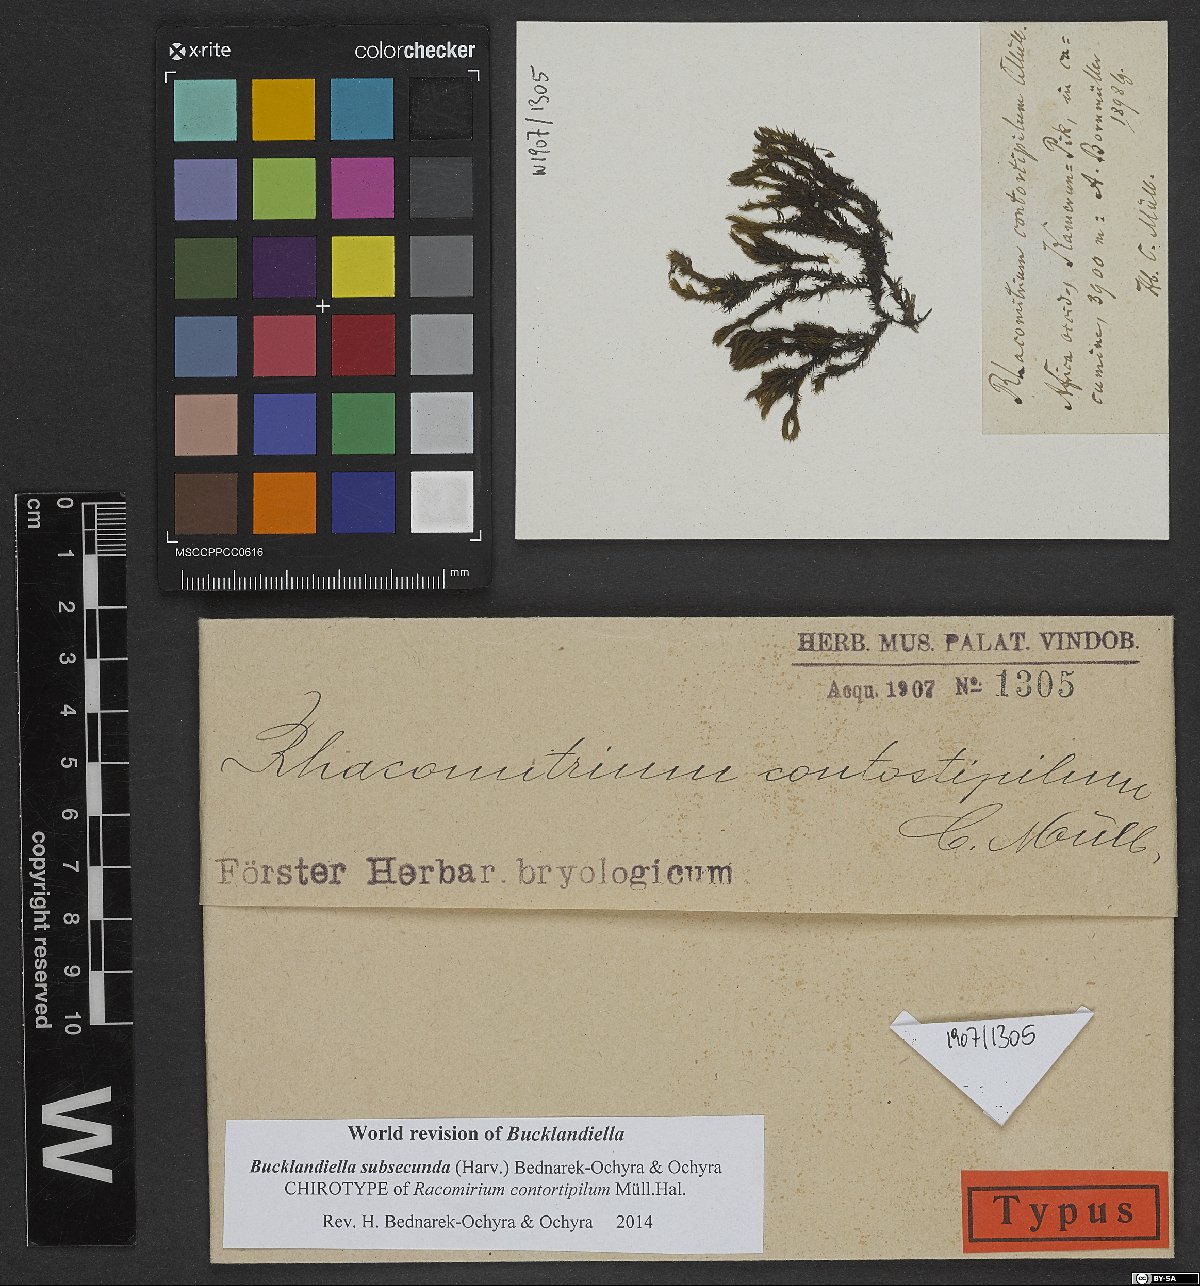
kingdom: Plantae
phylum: Bryophyta
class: Bryopsida
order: Grimmiales
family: Grimmiaceae
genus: Racomitrium
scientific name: Racomitrium
